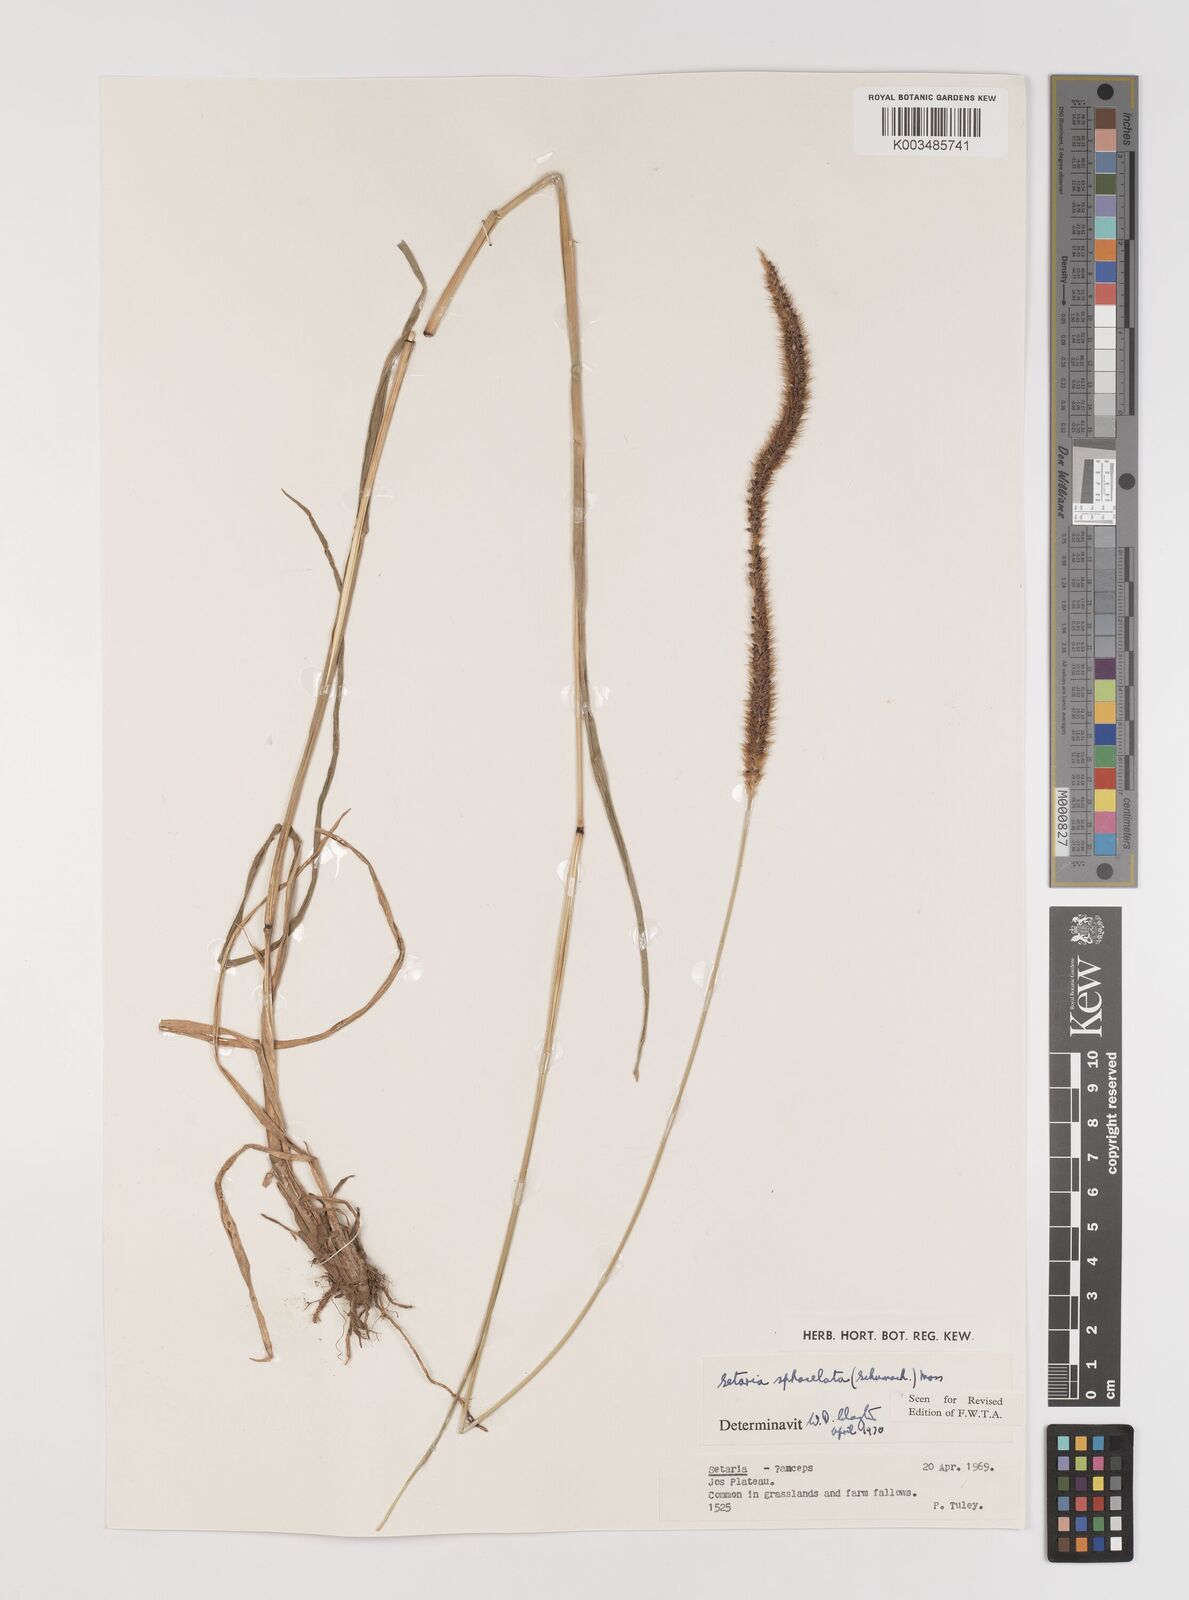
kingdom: Plantae
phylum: Tracheophyta
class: Liliopsida
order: Poales
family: Poaceae
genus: Setaria
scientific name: Setaria sphacelata
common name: African bristlegrass
